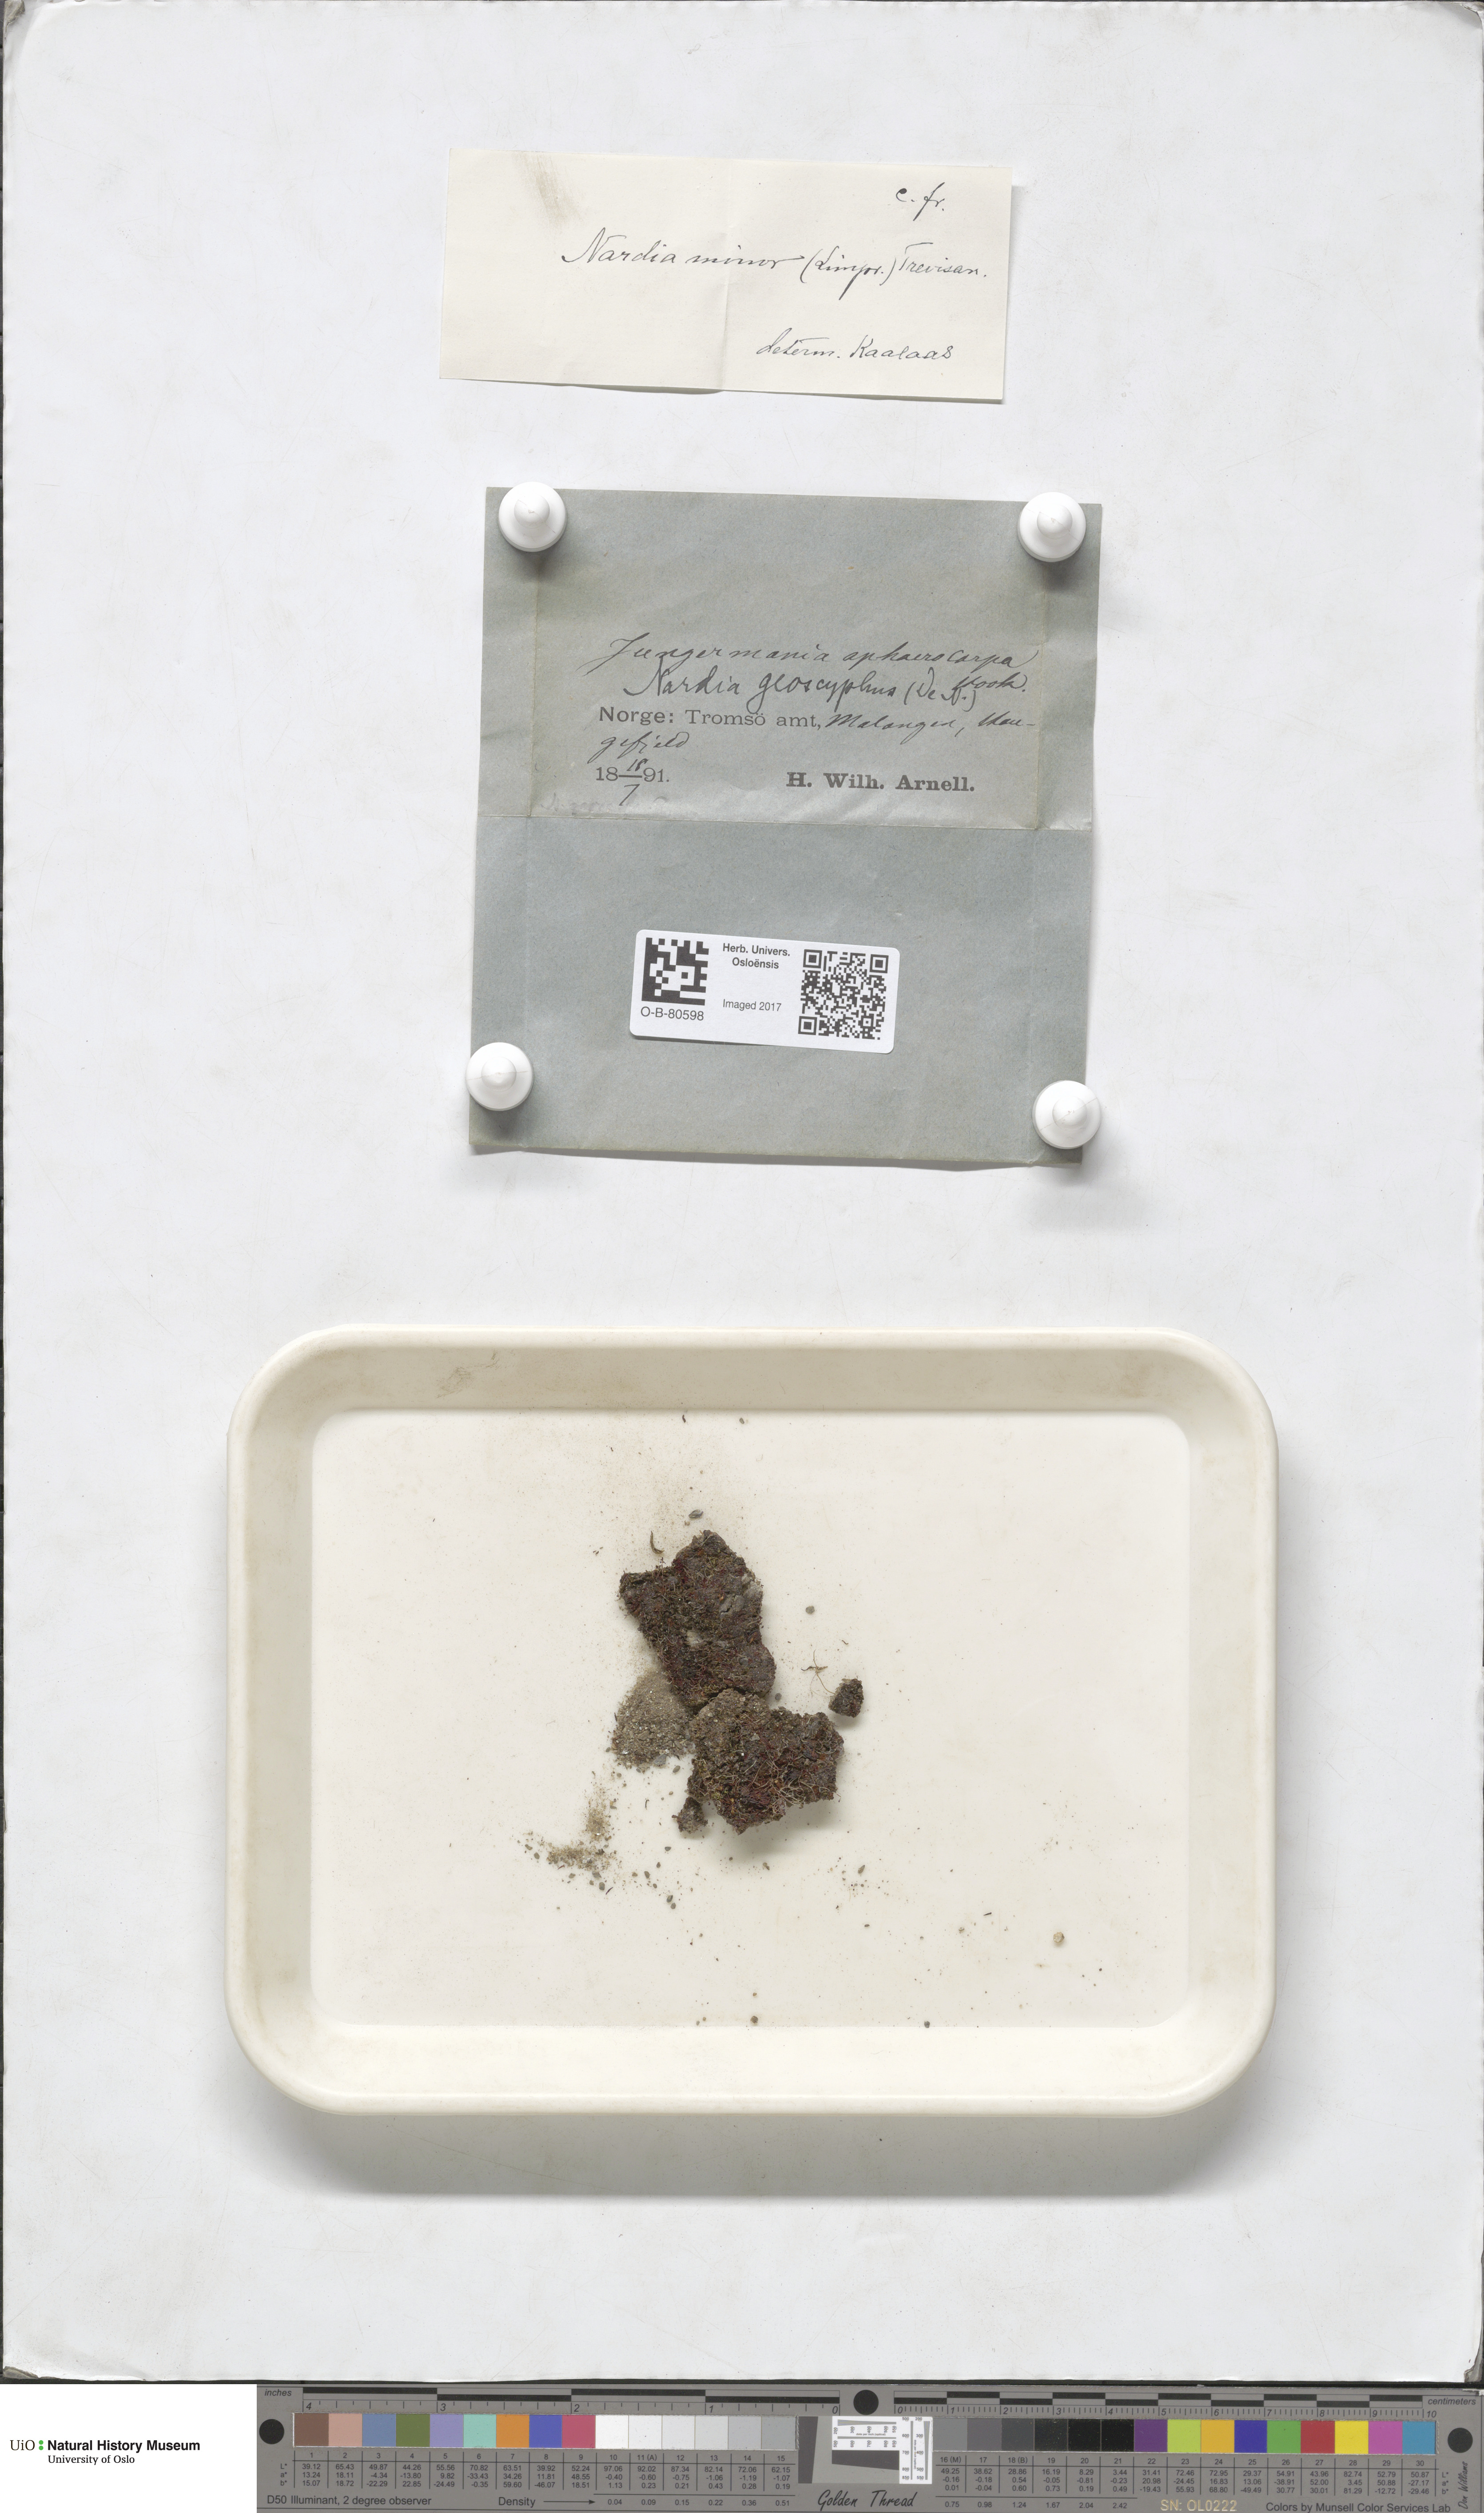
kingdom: Plantae
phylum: Marchantiophyta
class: Jungermanniopsida
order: Jungermanniales
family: Gymnomitriaceae
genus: Nardia
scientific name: Nardia geoscyphus
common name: Earth-cup flapwort
